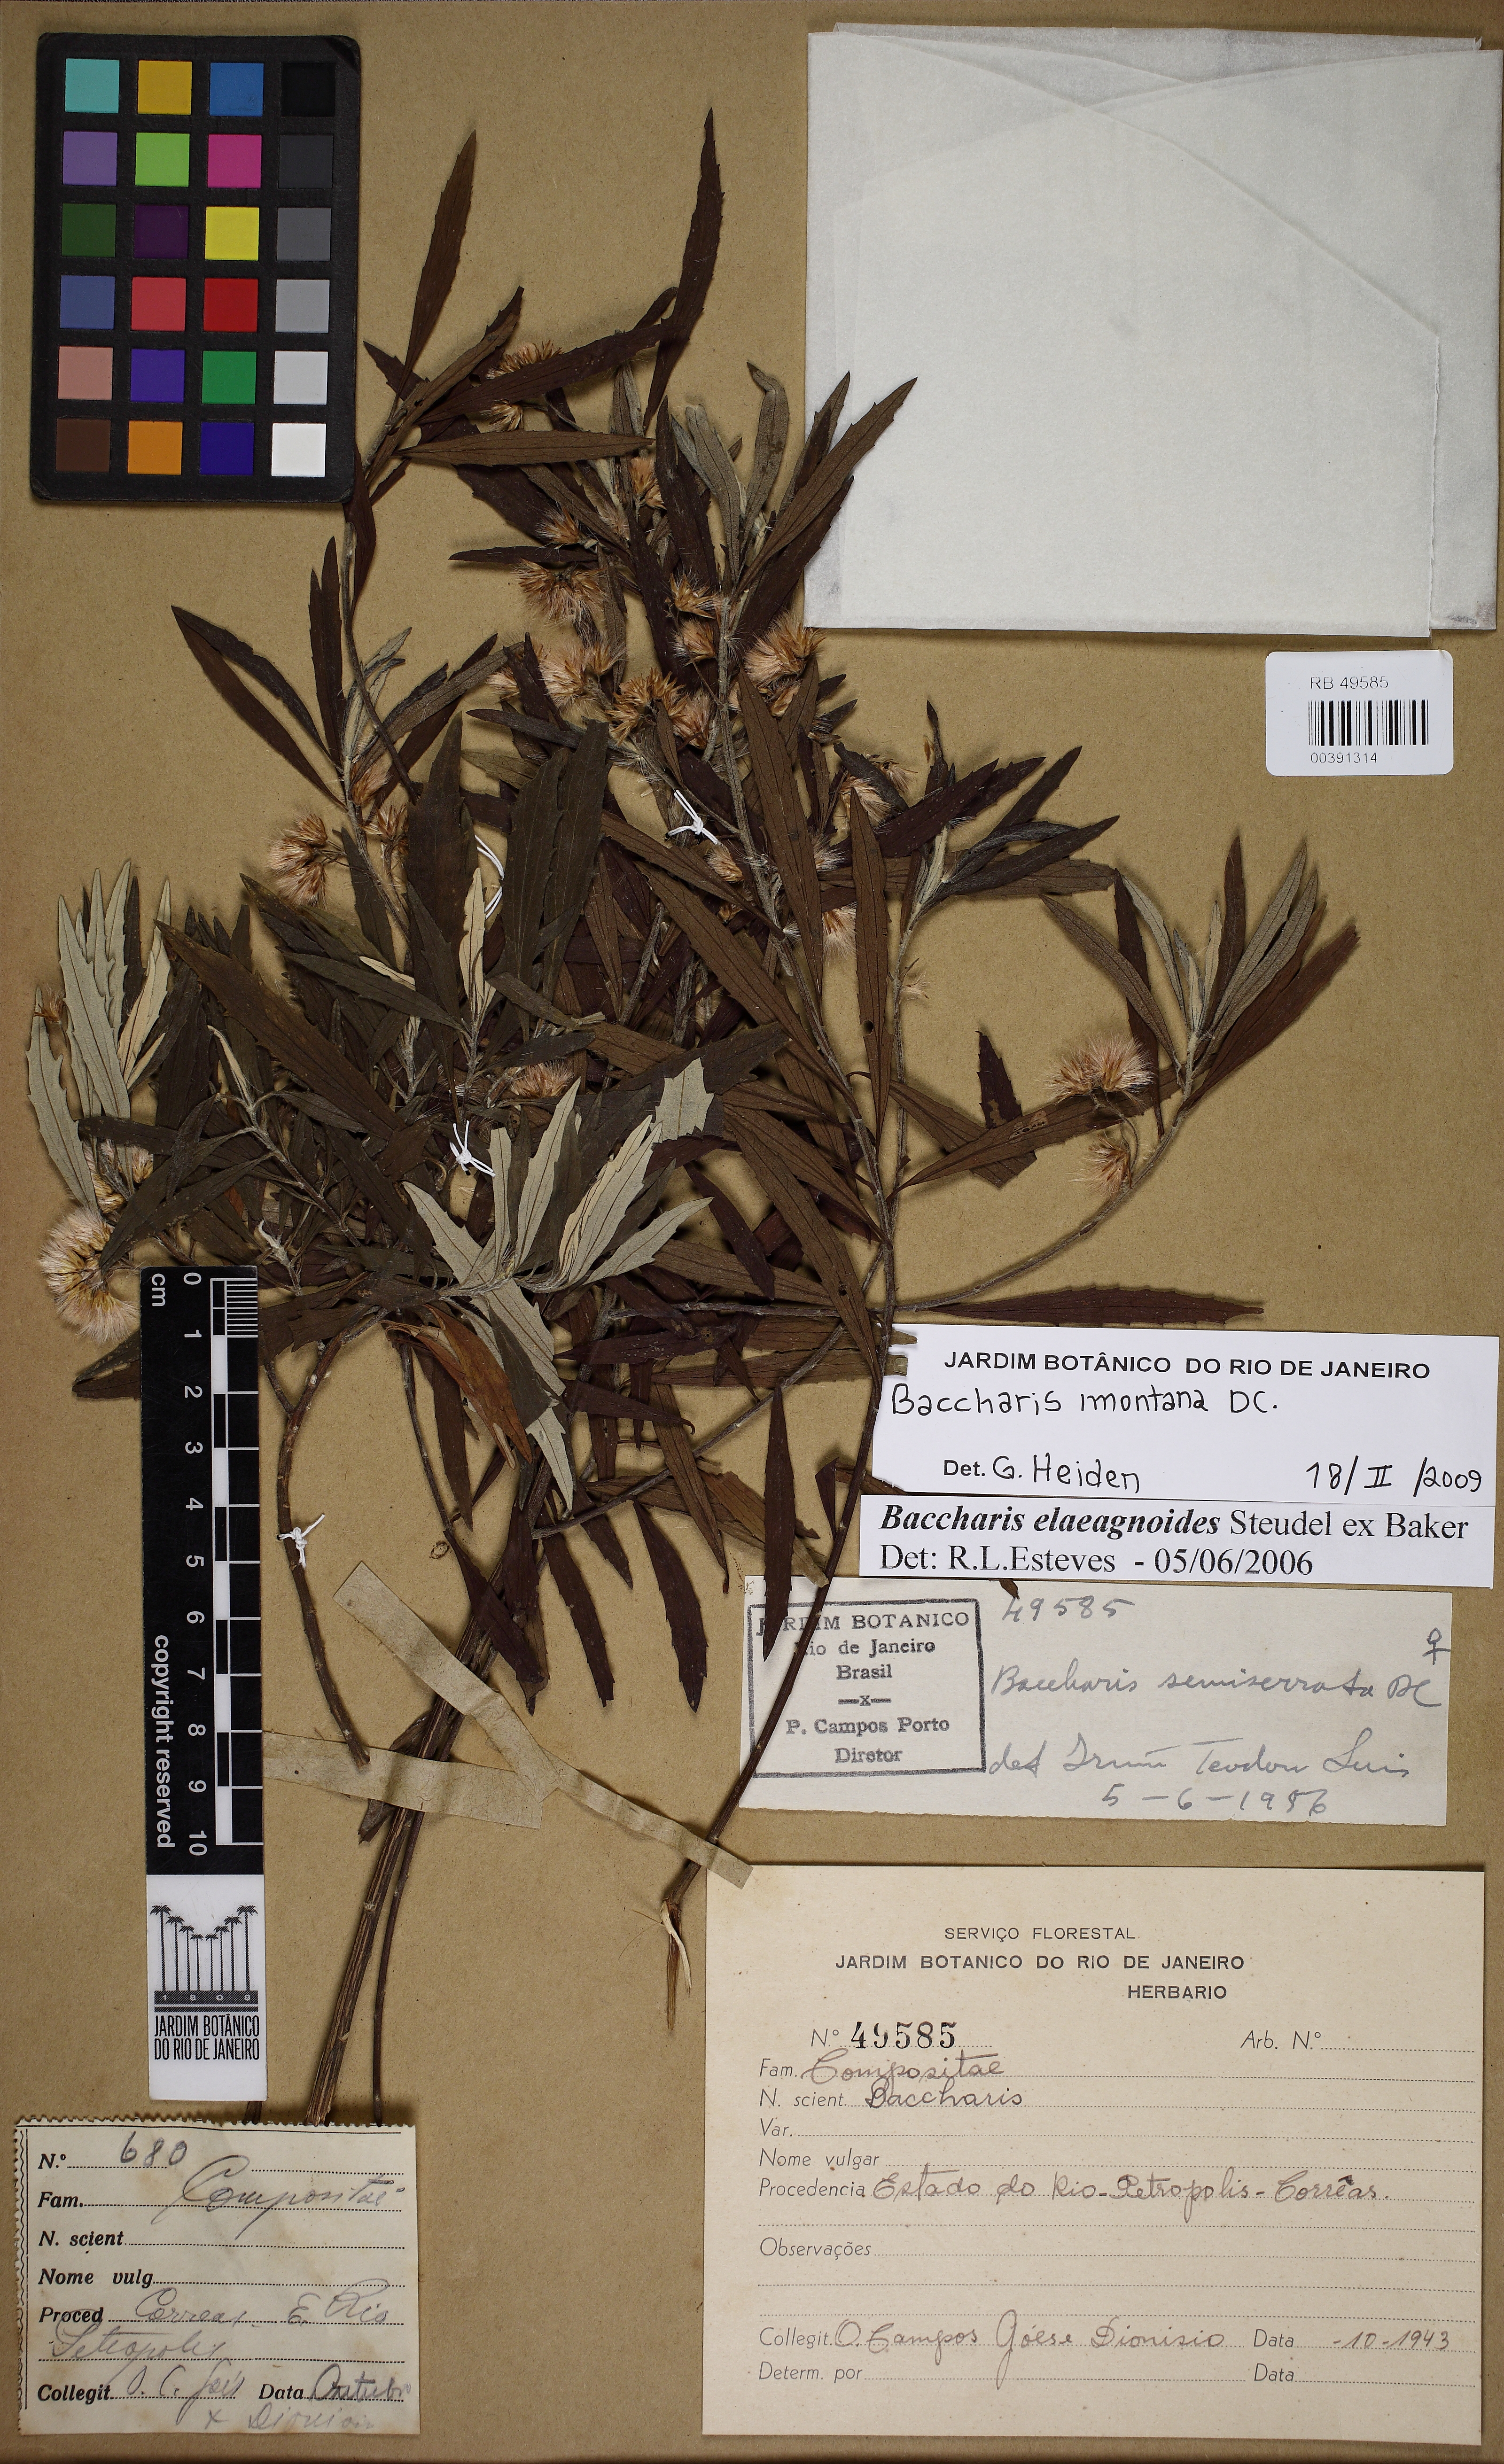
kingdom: Plantae
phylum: Tracheophyta
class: Magnoliopsida
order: Asterales
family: Asteraceae
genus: Baccharis
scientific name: Baccharis montana
